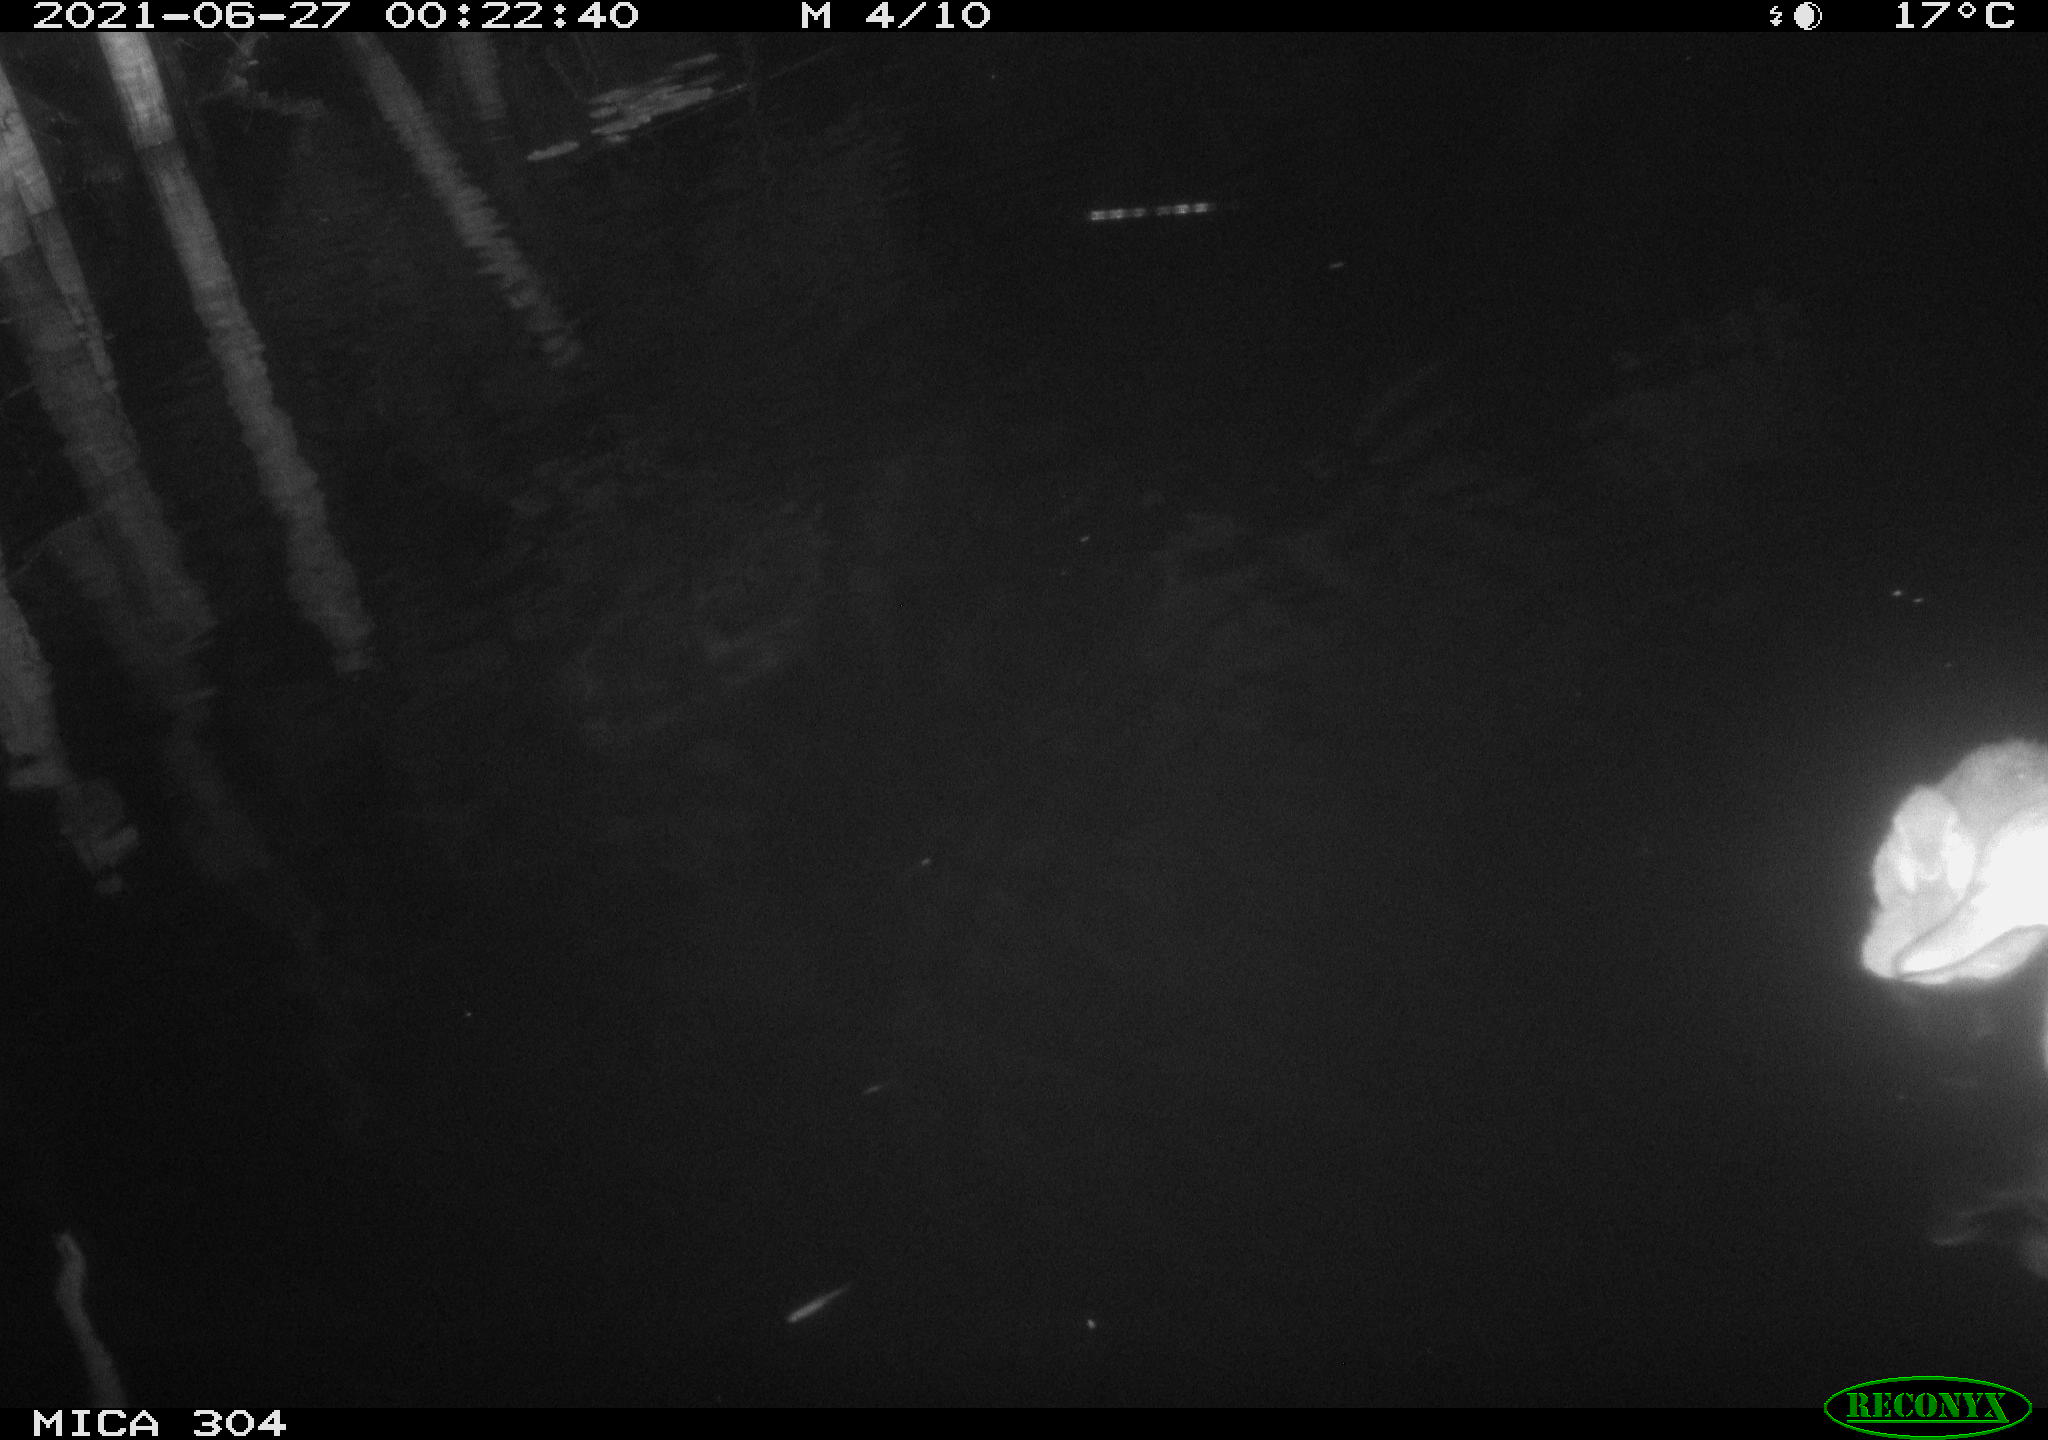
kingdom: Animalia
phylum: Chordata
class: Aves
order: Anseriformes
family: Anatidae
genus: Anas
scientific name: Anas platyrhynchos
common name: Mallard
